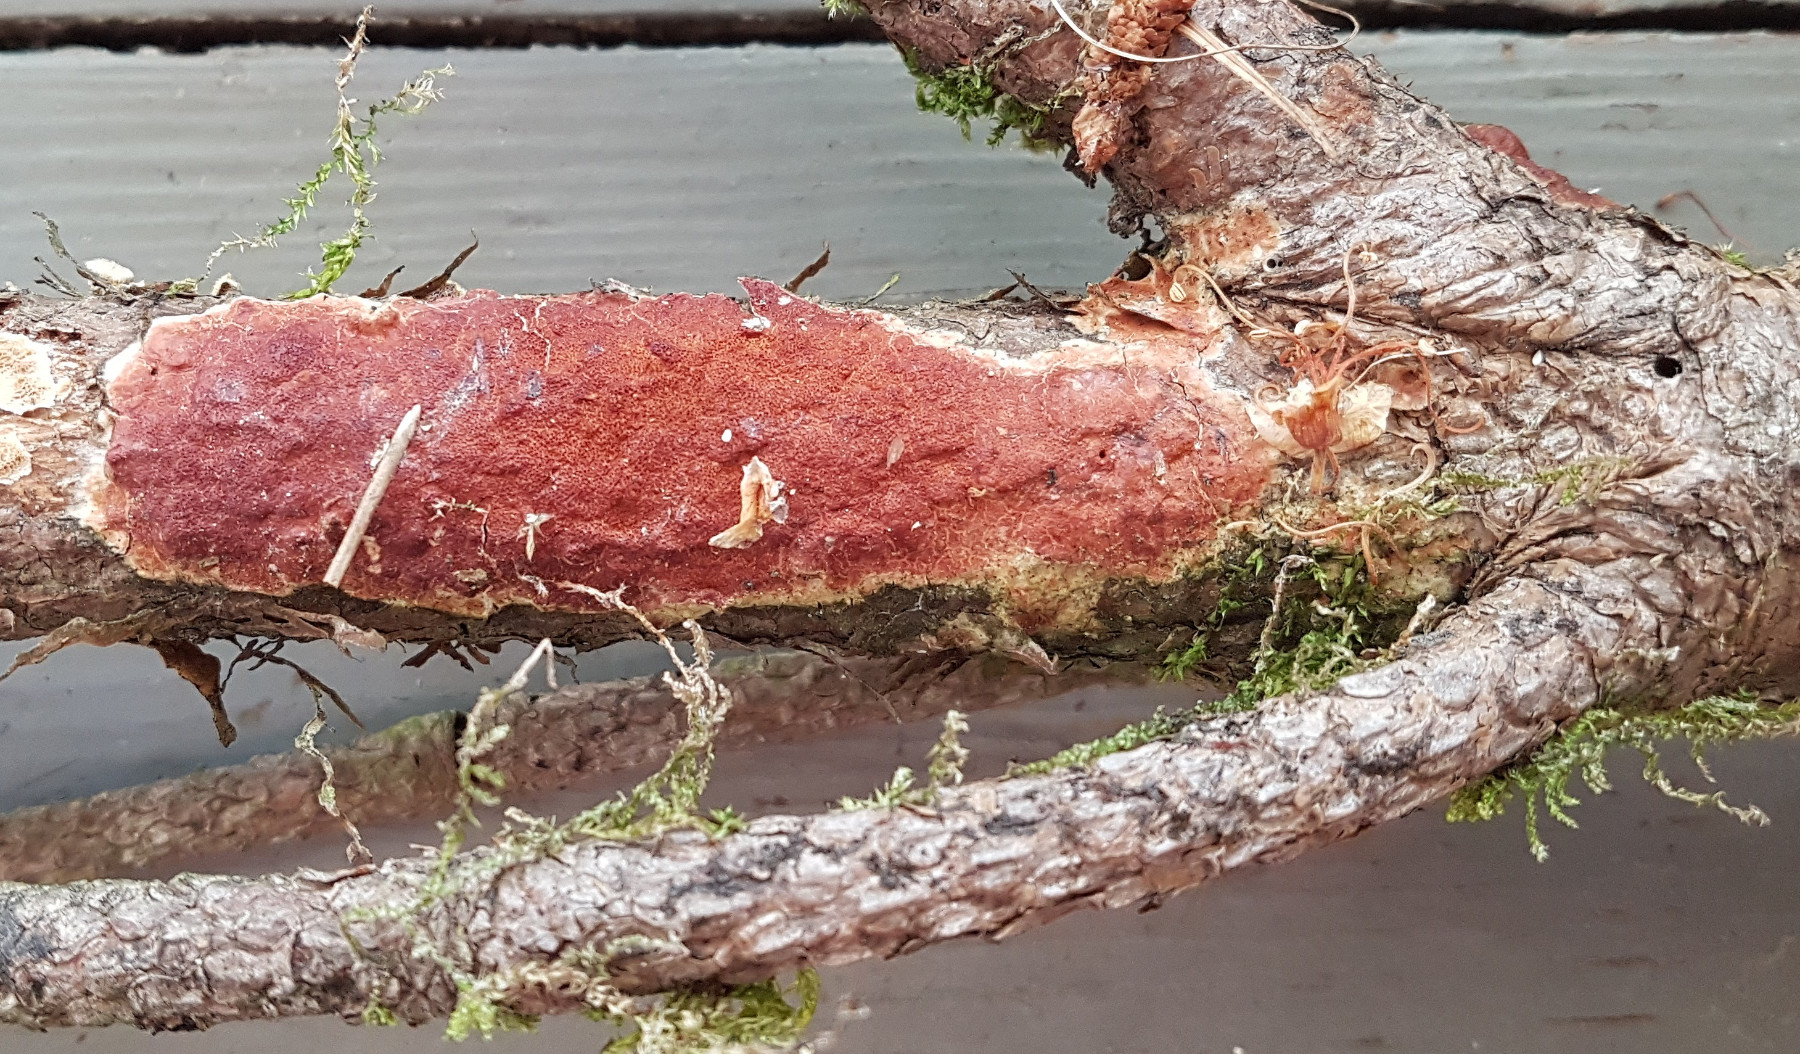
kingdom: Fungi
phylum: Basidiomycota
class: Agaricomycetes
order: Polyporales
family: Irpicaceae
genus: Meruliopsis
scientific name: Meruliopsis taxicola
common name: purpurbrun foldporesvamp
